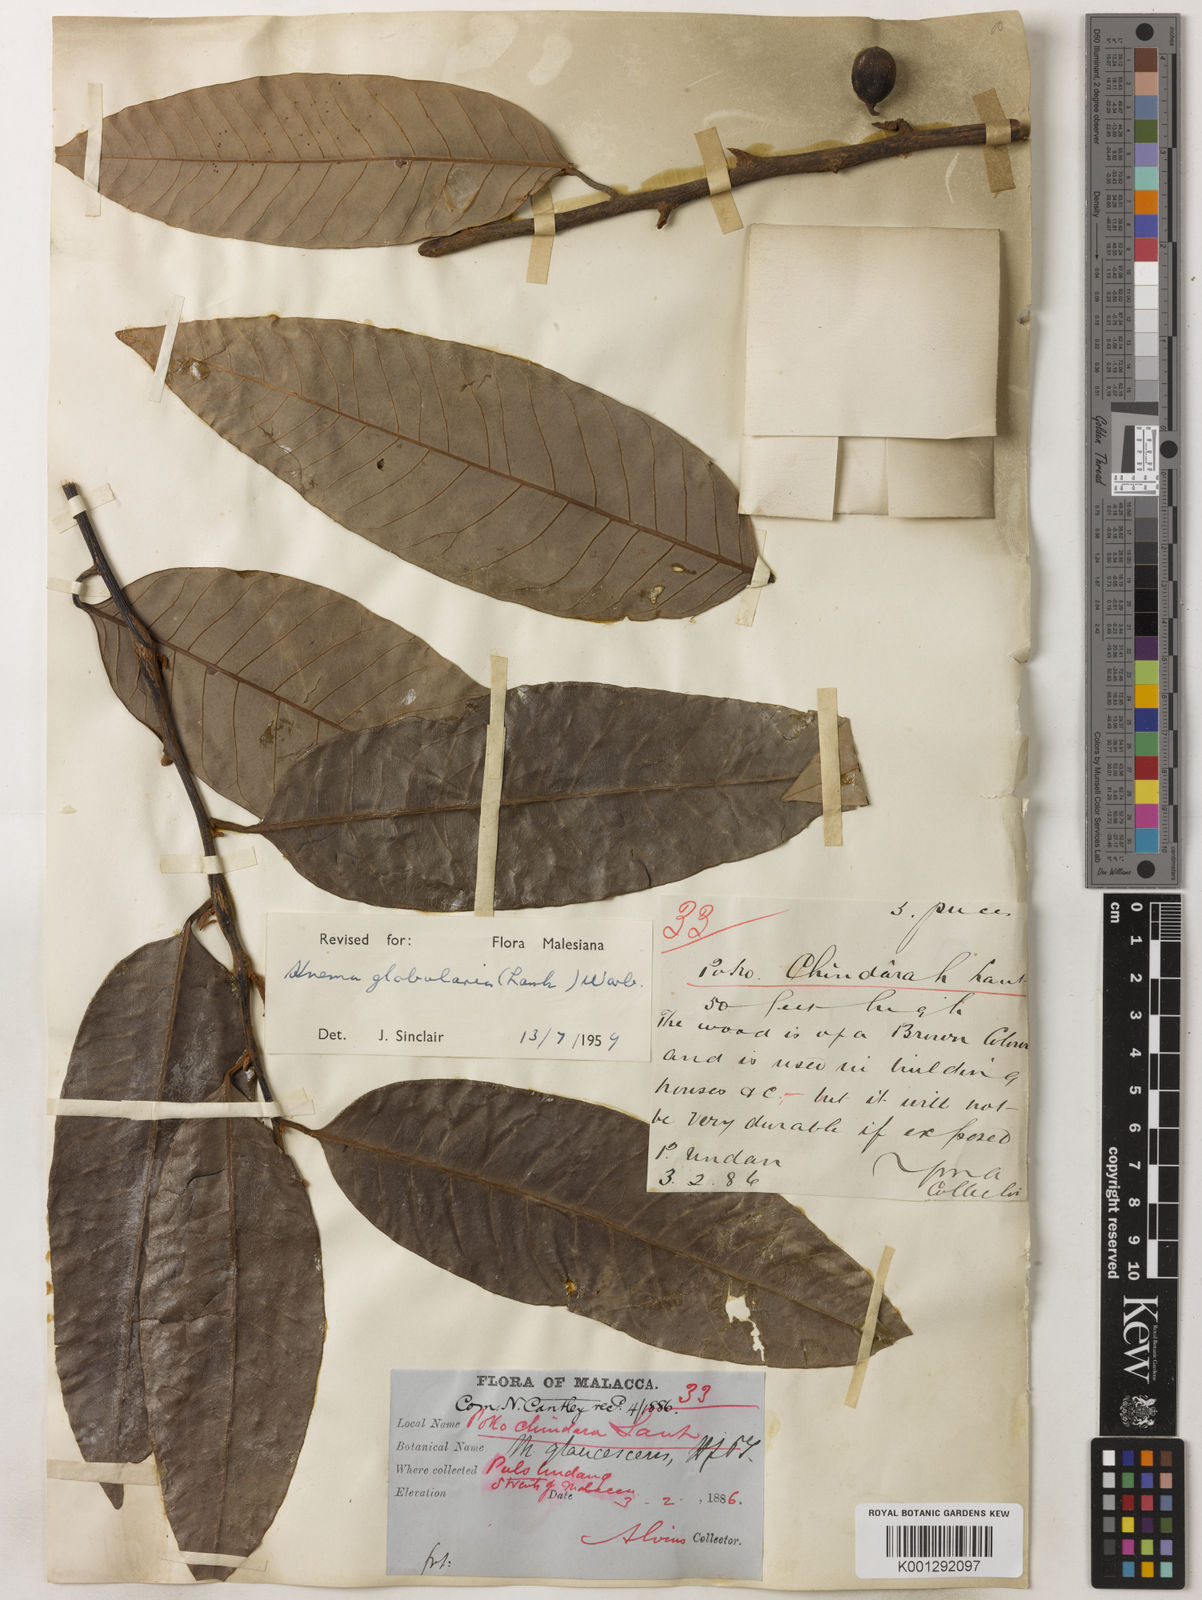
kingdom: Plantae
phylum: Tracheophyta
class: Magnoliopsida
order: Magnoliales
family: Myristicaceae
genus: Knema
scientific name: Knema globularia
